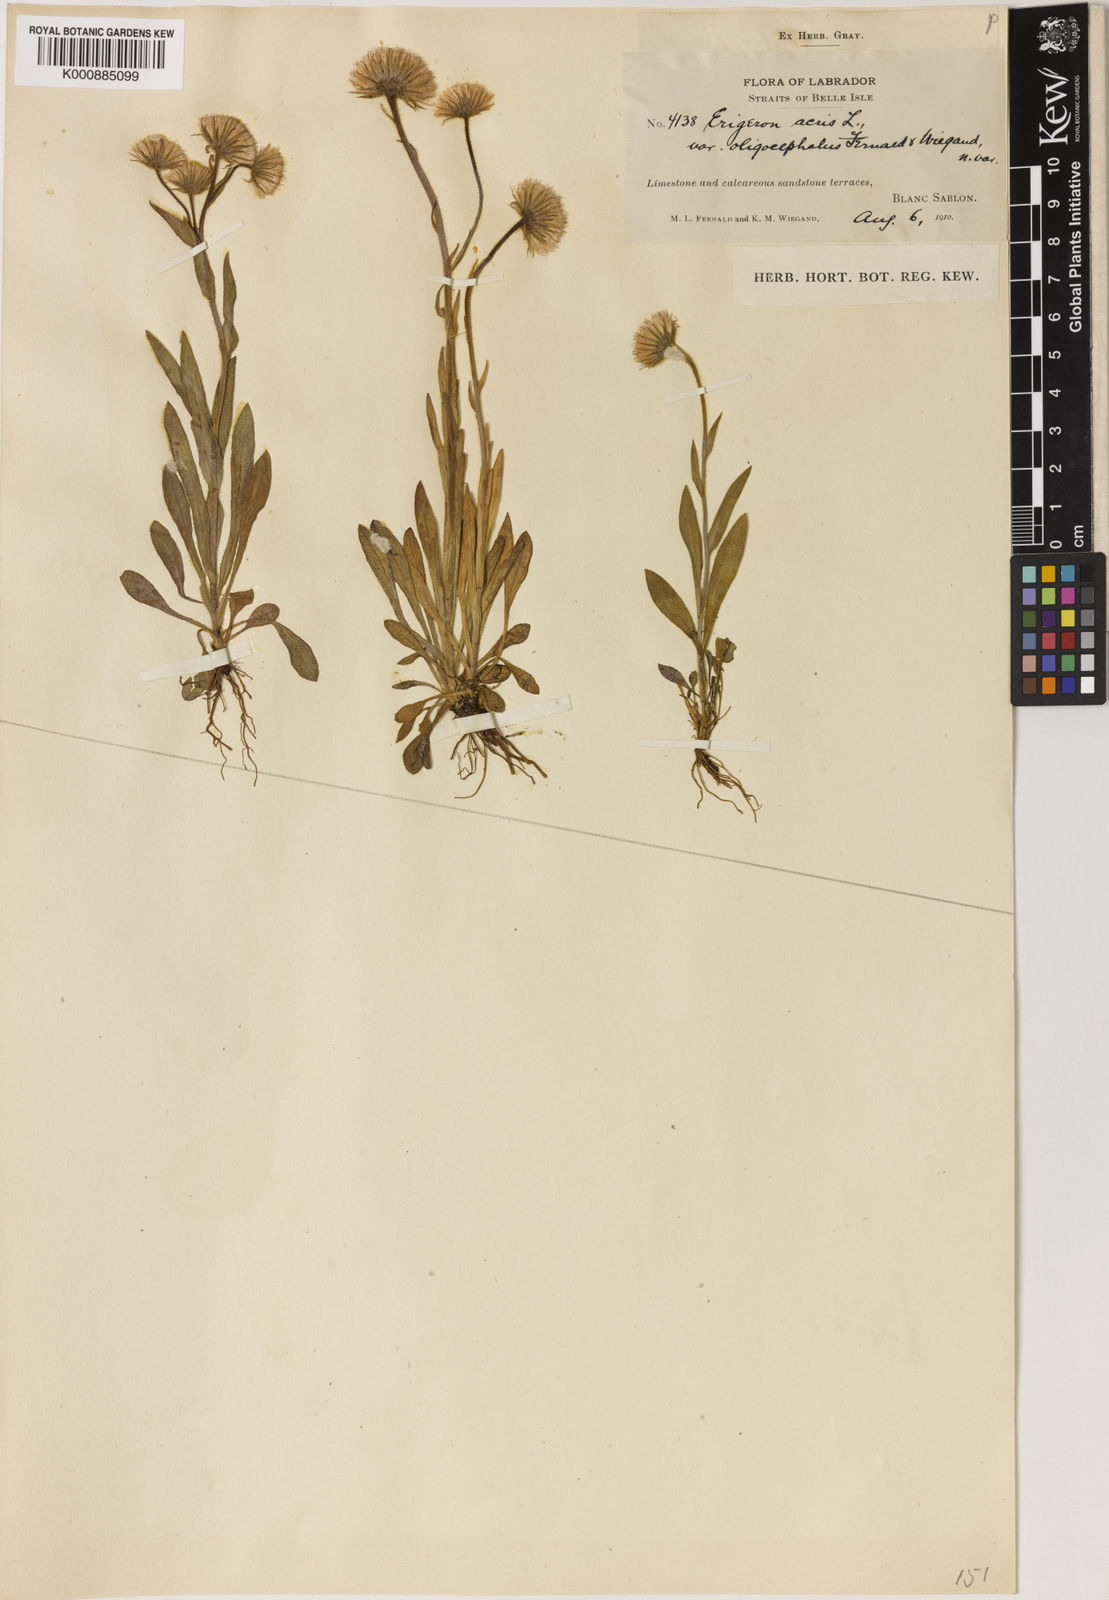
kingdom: Plantae
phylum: Tracheophyta
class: Magnoliopsida
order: Asterales
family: Asteraceae
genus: Erigeron
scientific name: Erigeron acris
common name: Blue fleabane
